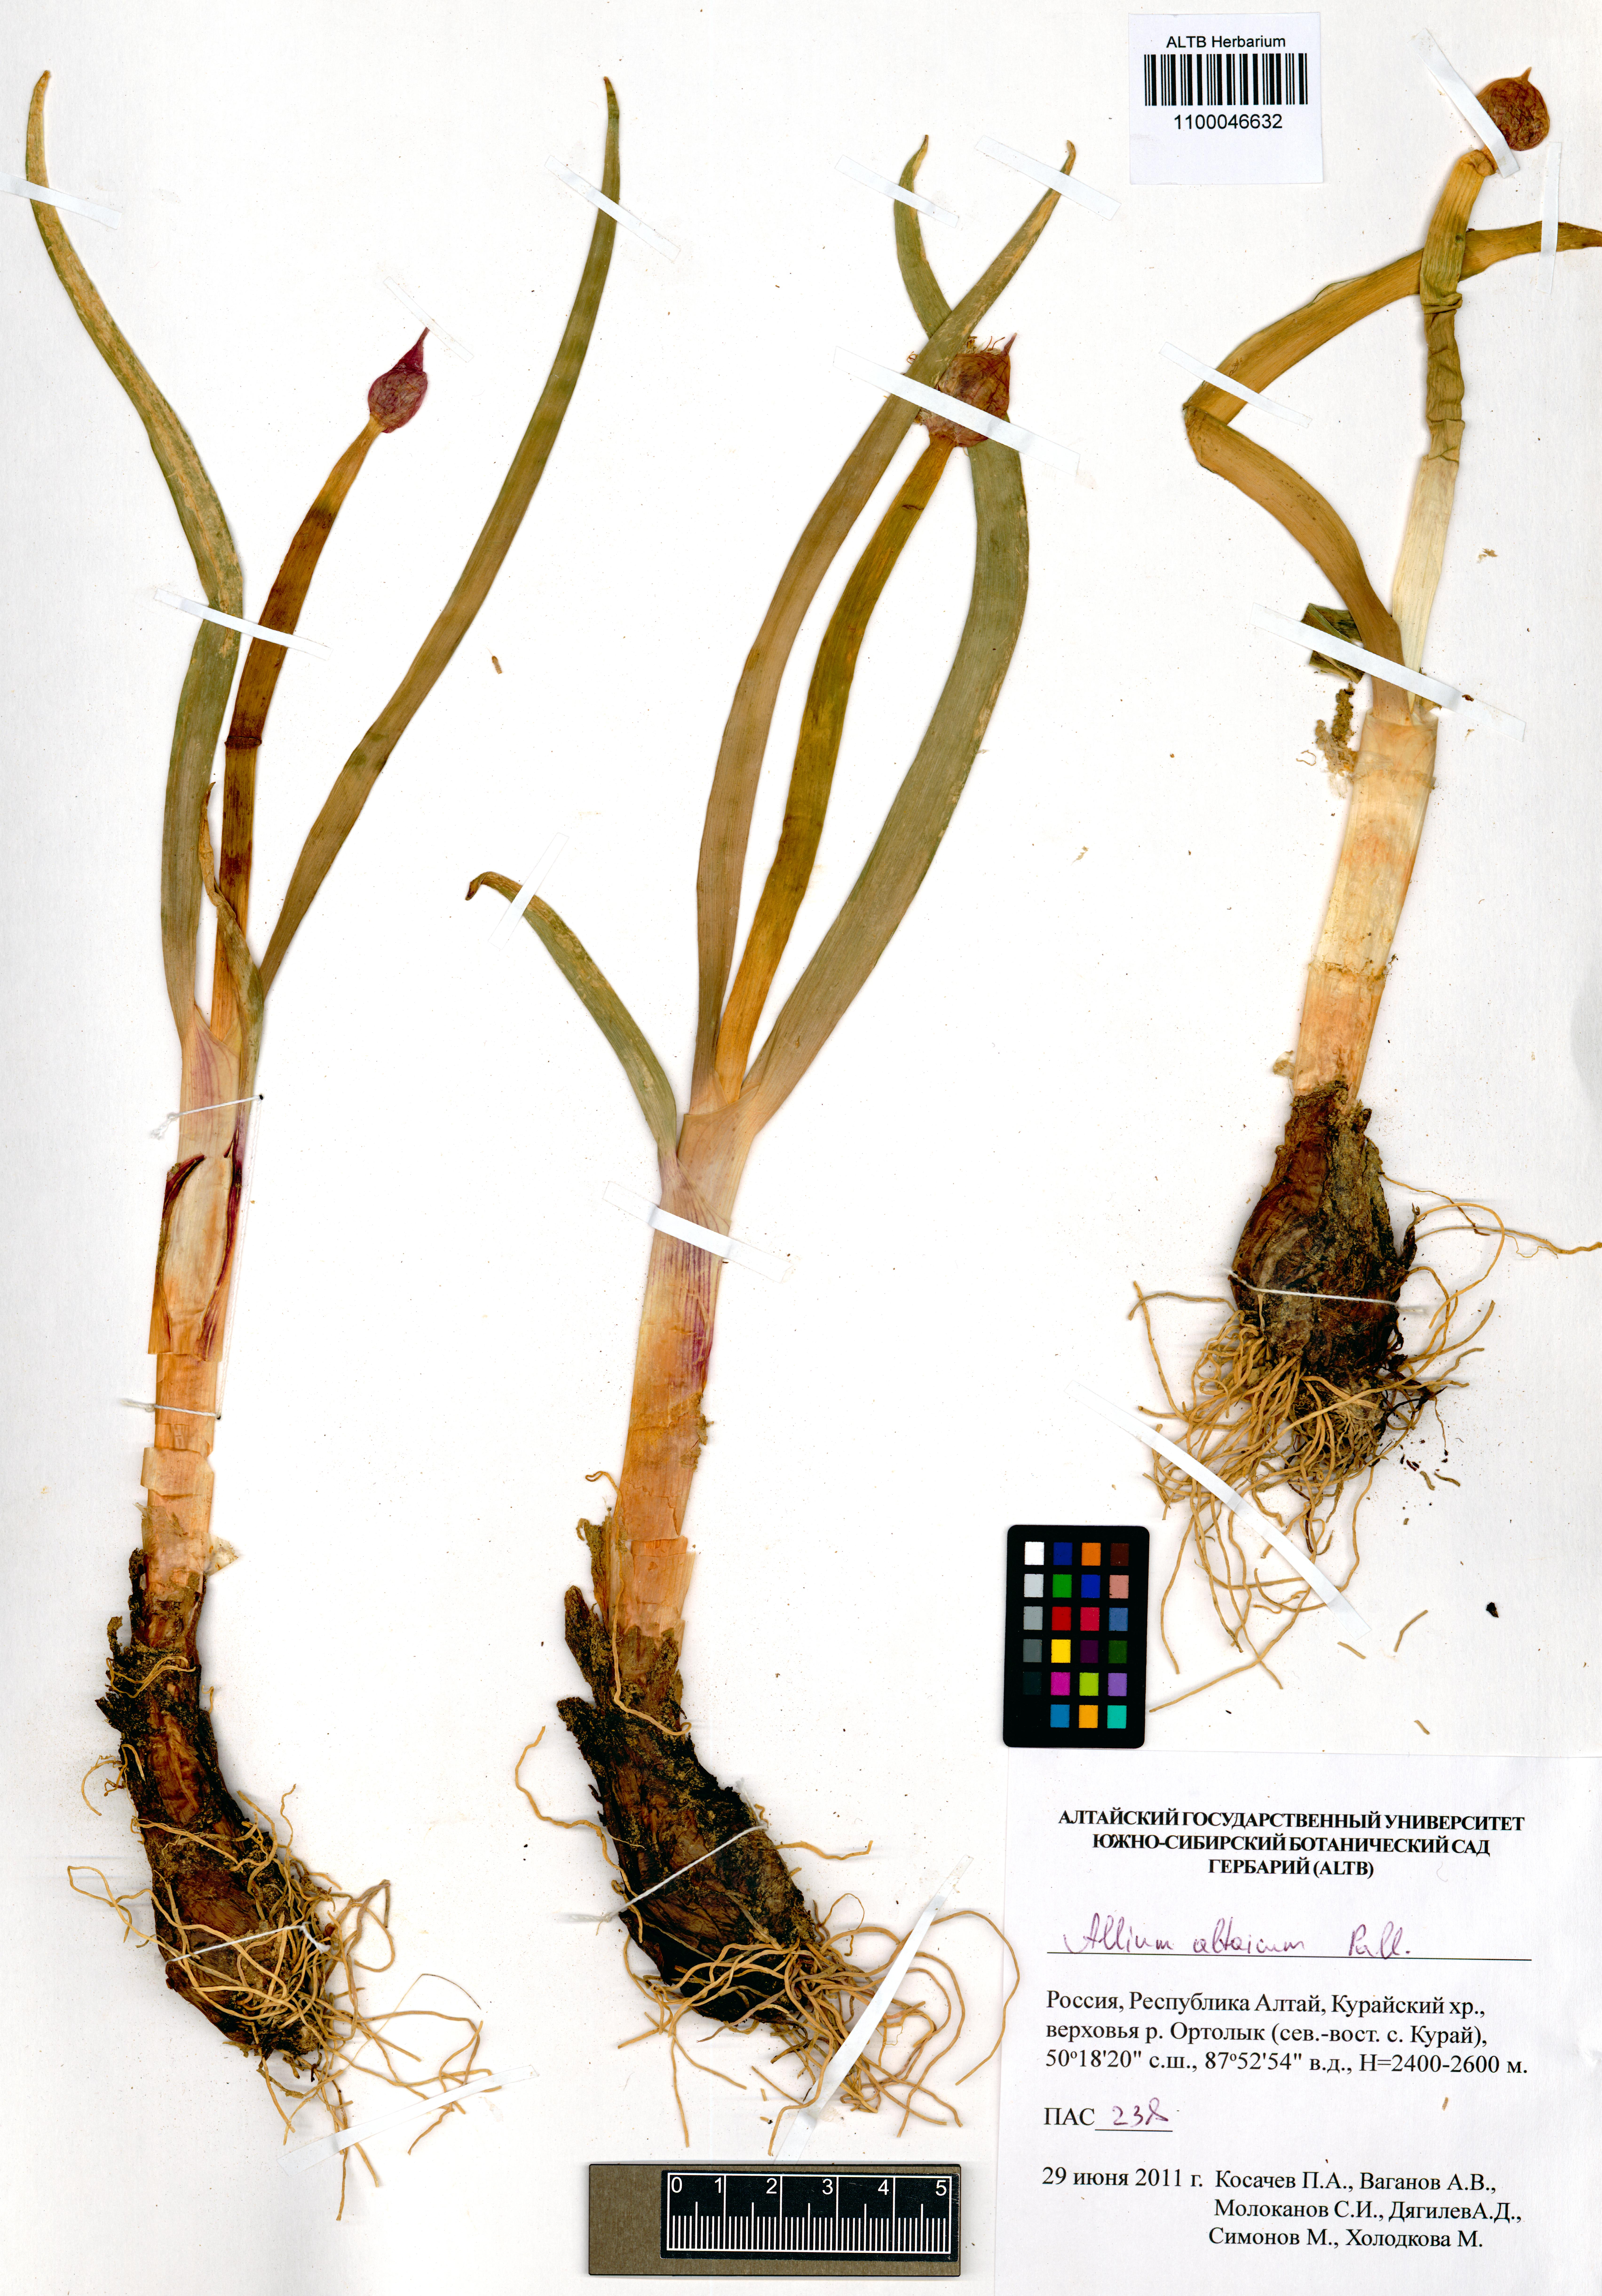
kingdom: Plantae
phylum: Tracheophyta
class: Liliopsida
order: Asparagales
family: Amaryllidaceae
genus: Allium
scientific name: Allium altaicum
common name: Altai onion
